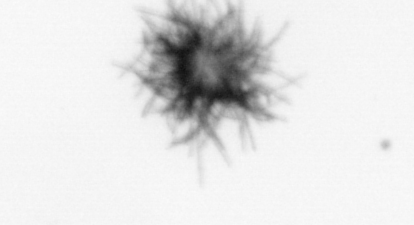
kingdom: Bacteria
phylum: Cyanobacteria
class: Cyanobacteriia
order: Cyanobacteriales
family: Microcoleaceae
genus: Trichodesmium
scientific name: Trichodesmium
